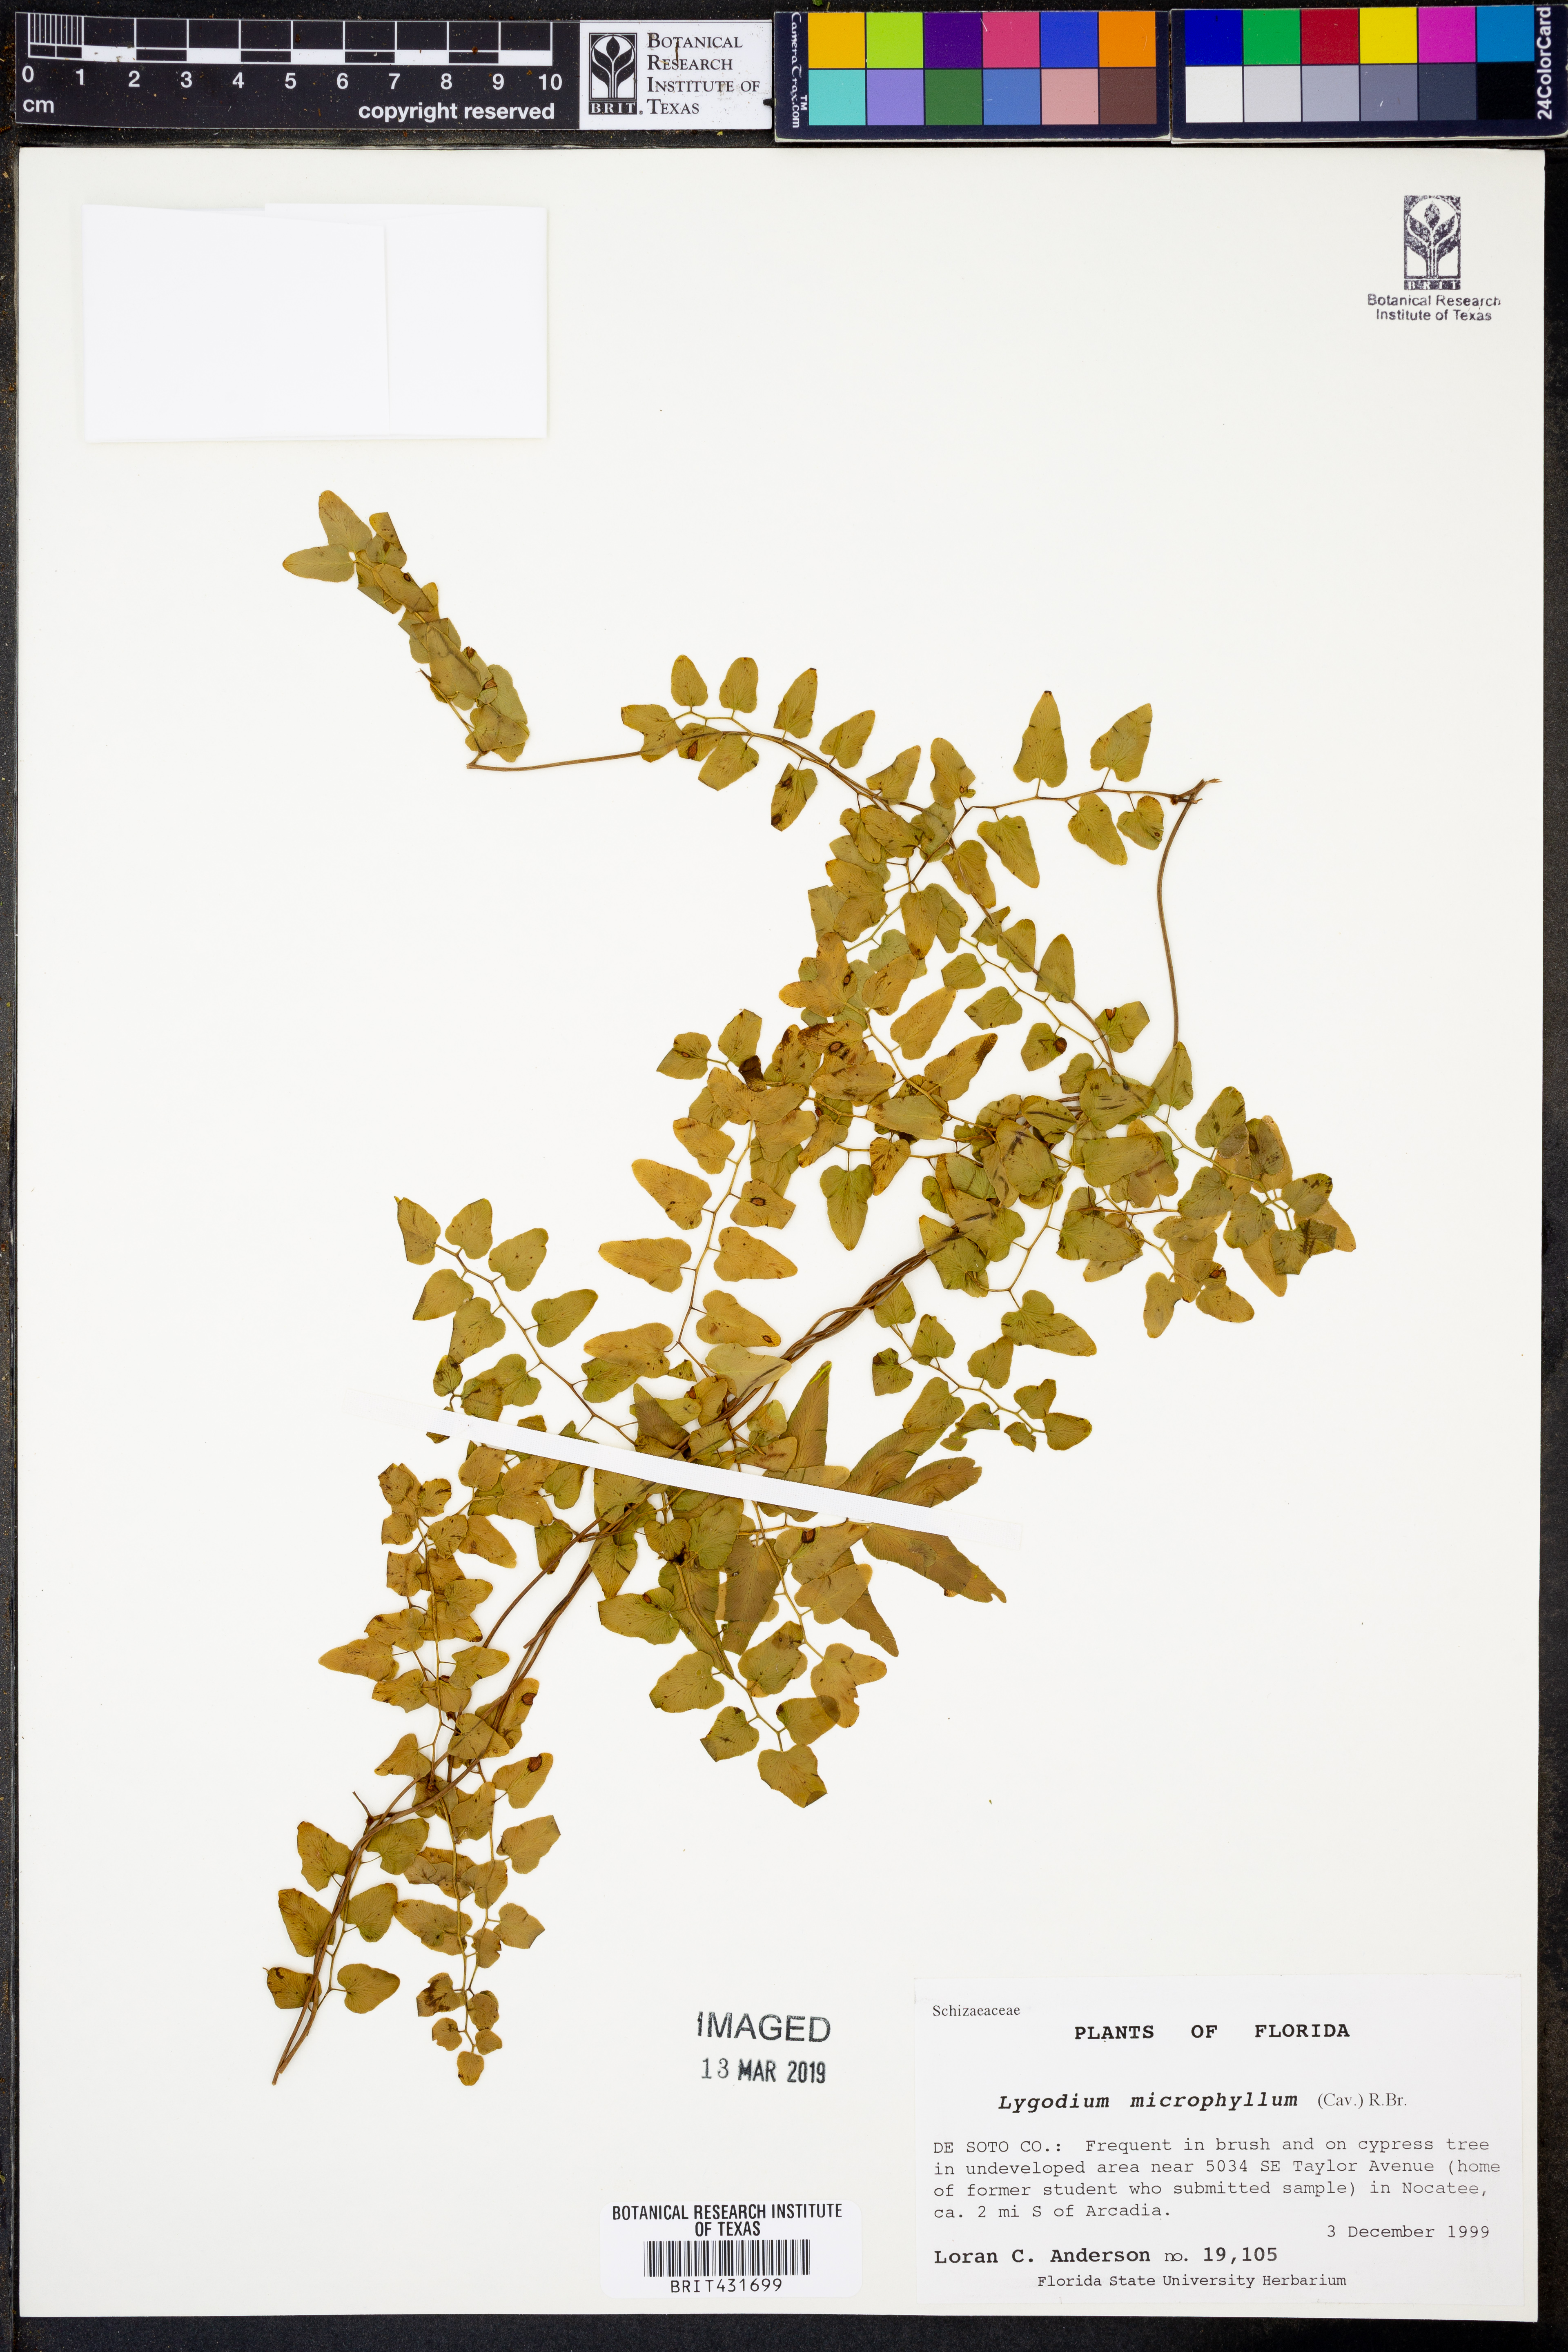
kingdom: Plantae
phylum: Tracheophyta
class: Polypodiopsida
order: Schizaeales
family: Lygodiaceae
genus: Lygodium
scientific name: Lygodium microphyllum
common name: Small-leaf climbing fern
